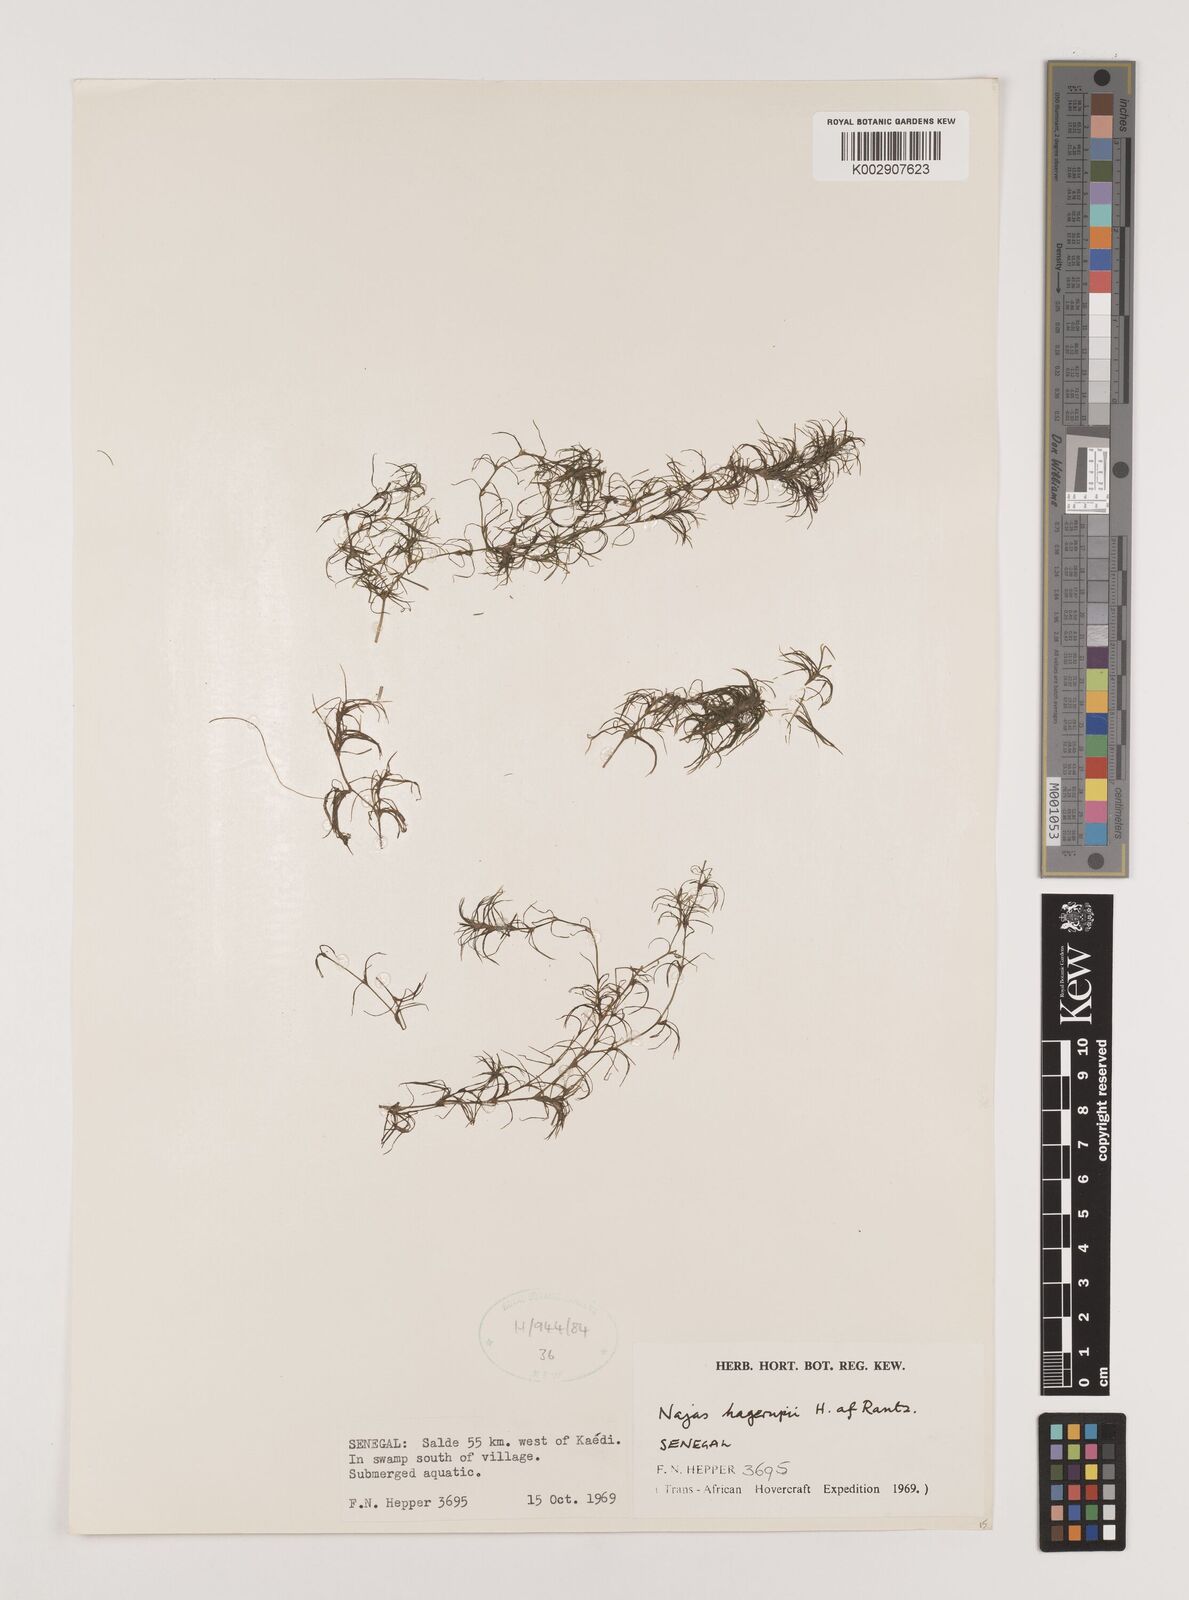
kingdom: Plantae
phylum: Tracheophyta
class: Liliopsida
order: Alismatales
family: Hydrocharitaceae
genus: Najas
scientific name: Najas hagerupii
